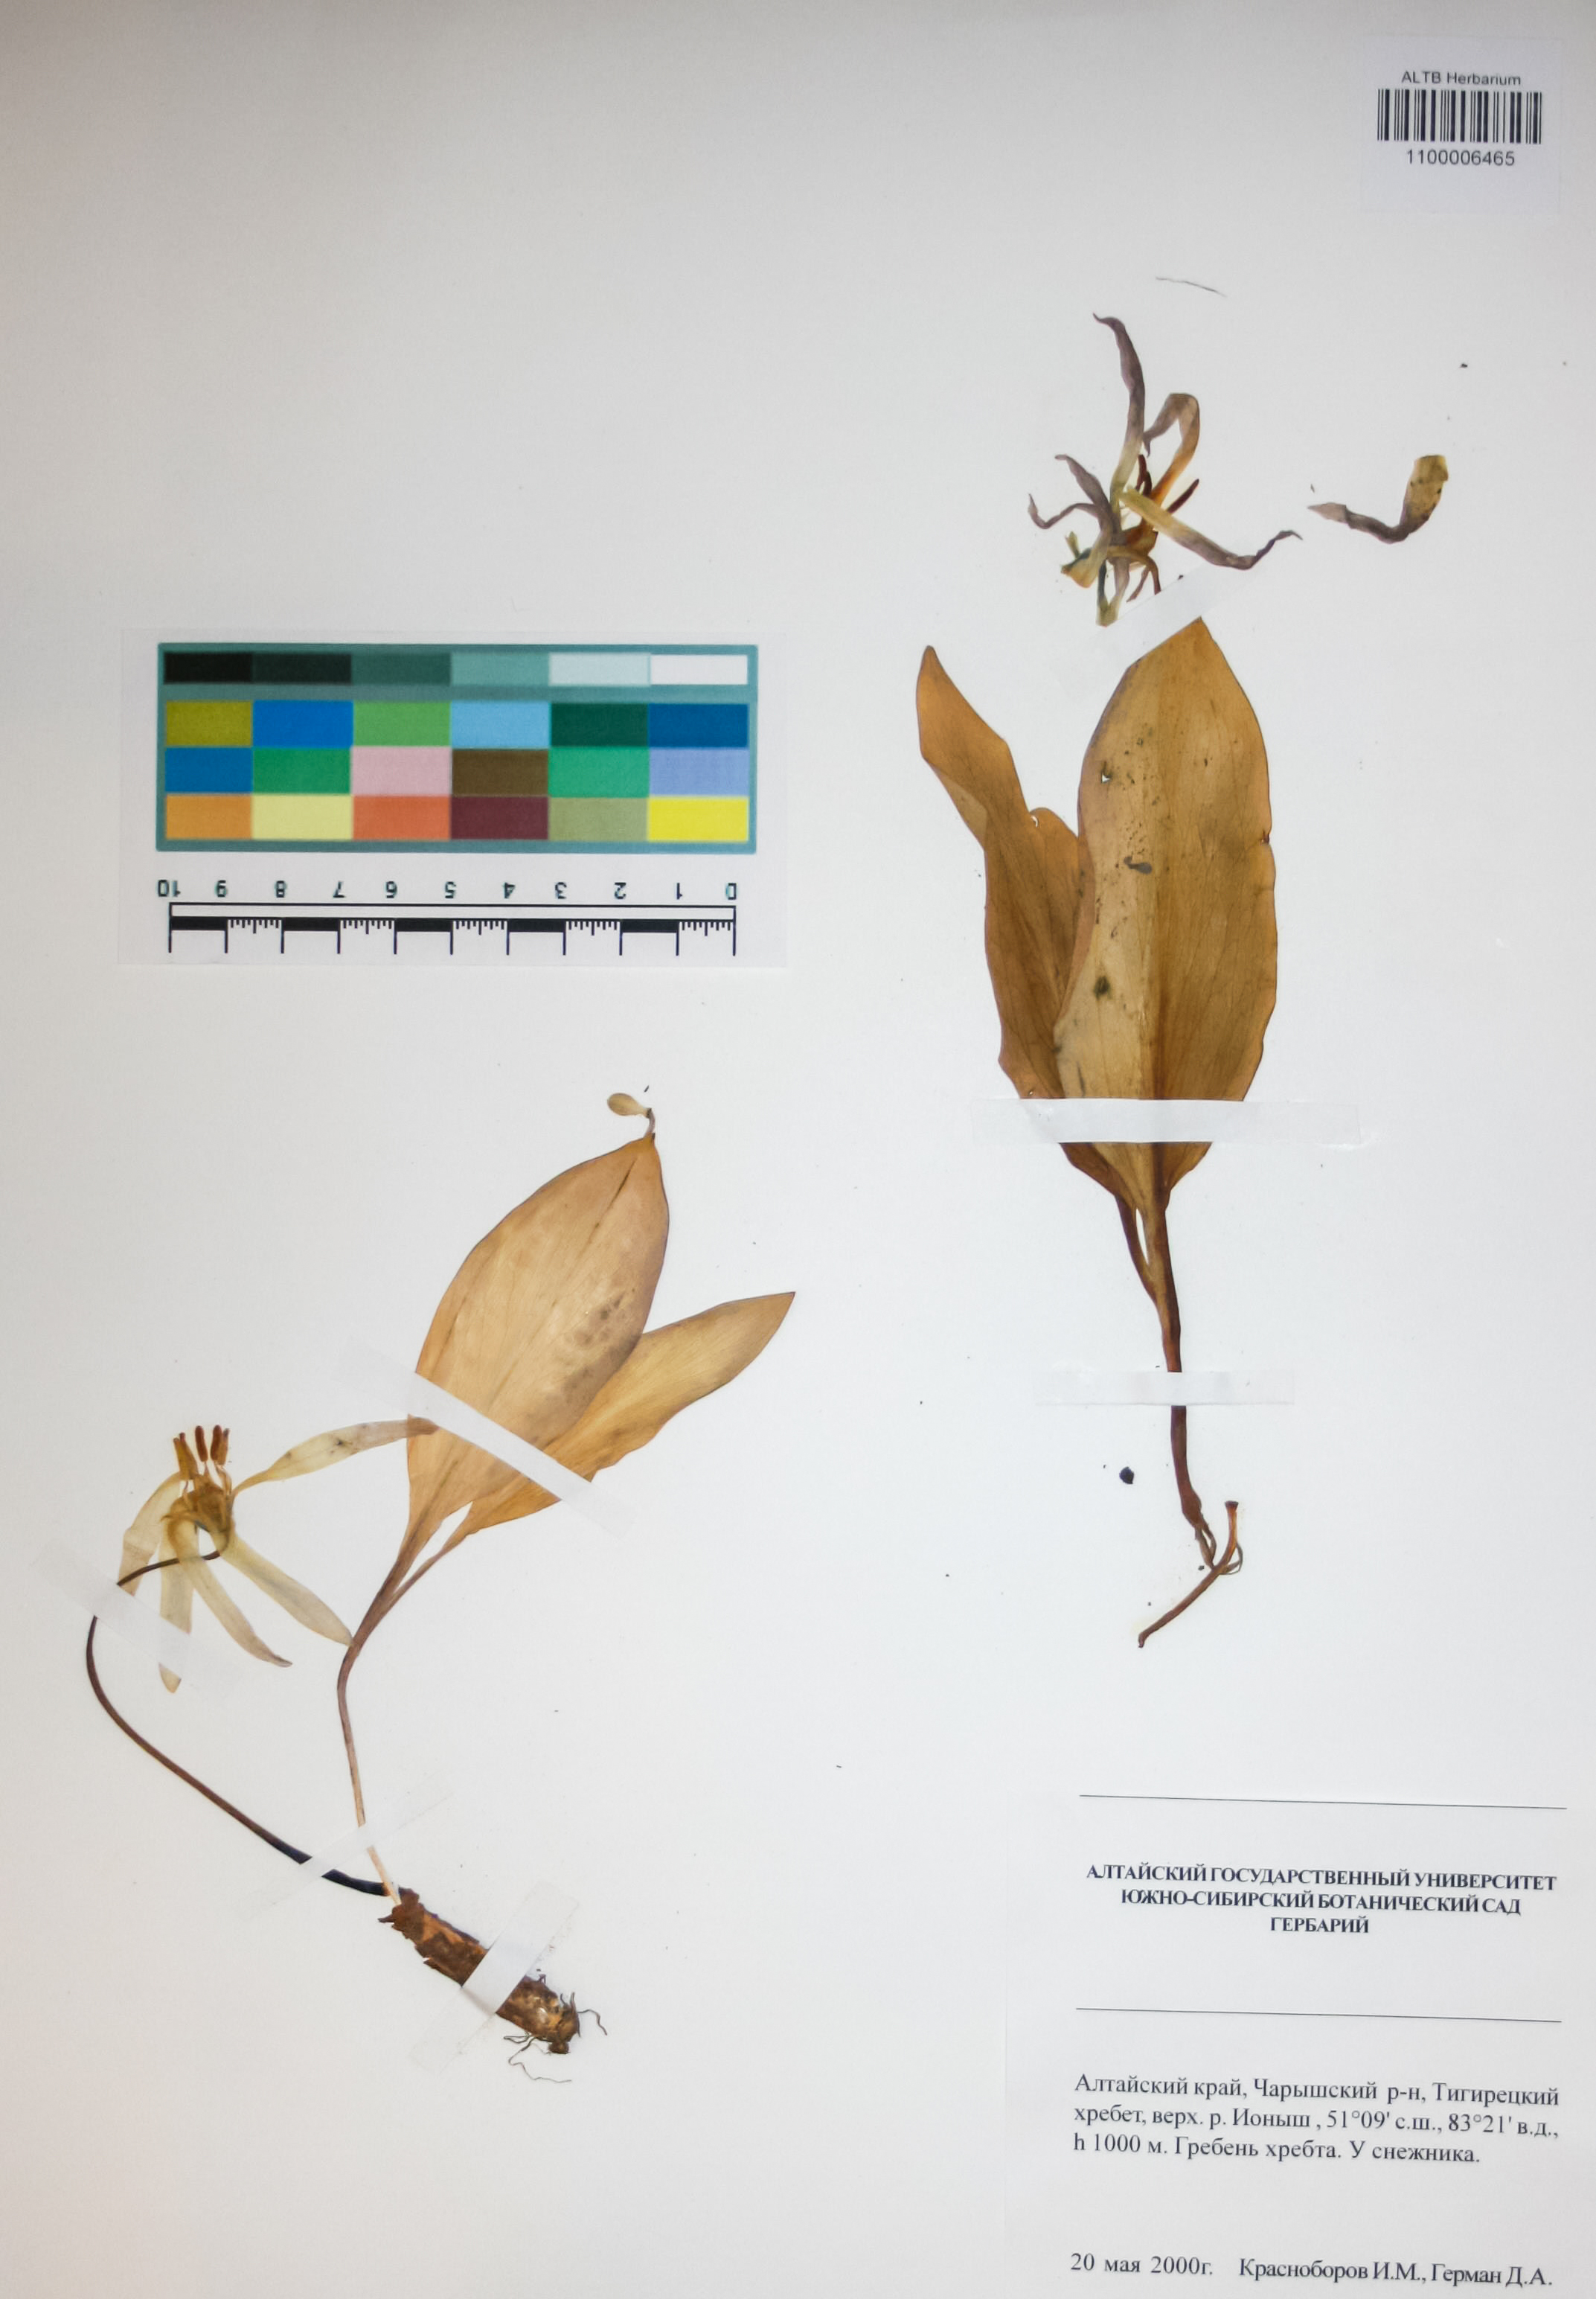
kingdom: Plantae
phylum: Tracheophyta
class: Liliopsida
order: Liliales
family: Liliaceae
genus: Erythronium
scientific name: Erythronium sibiricum
